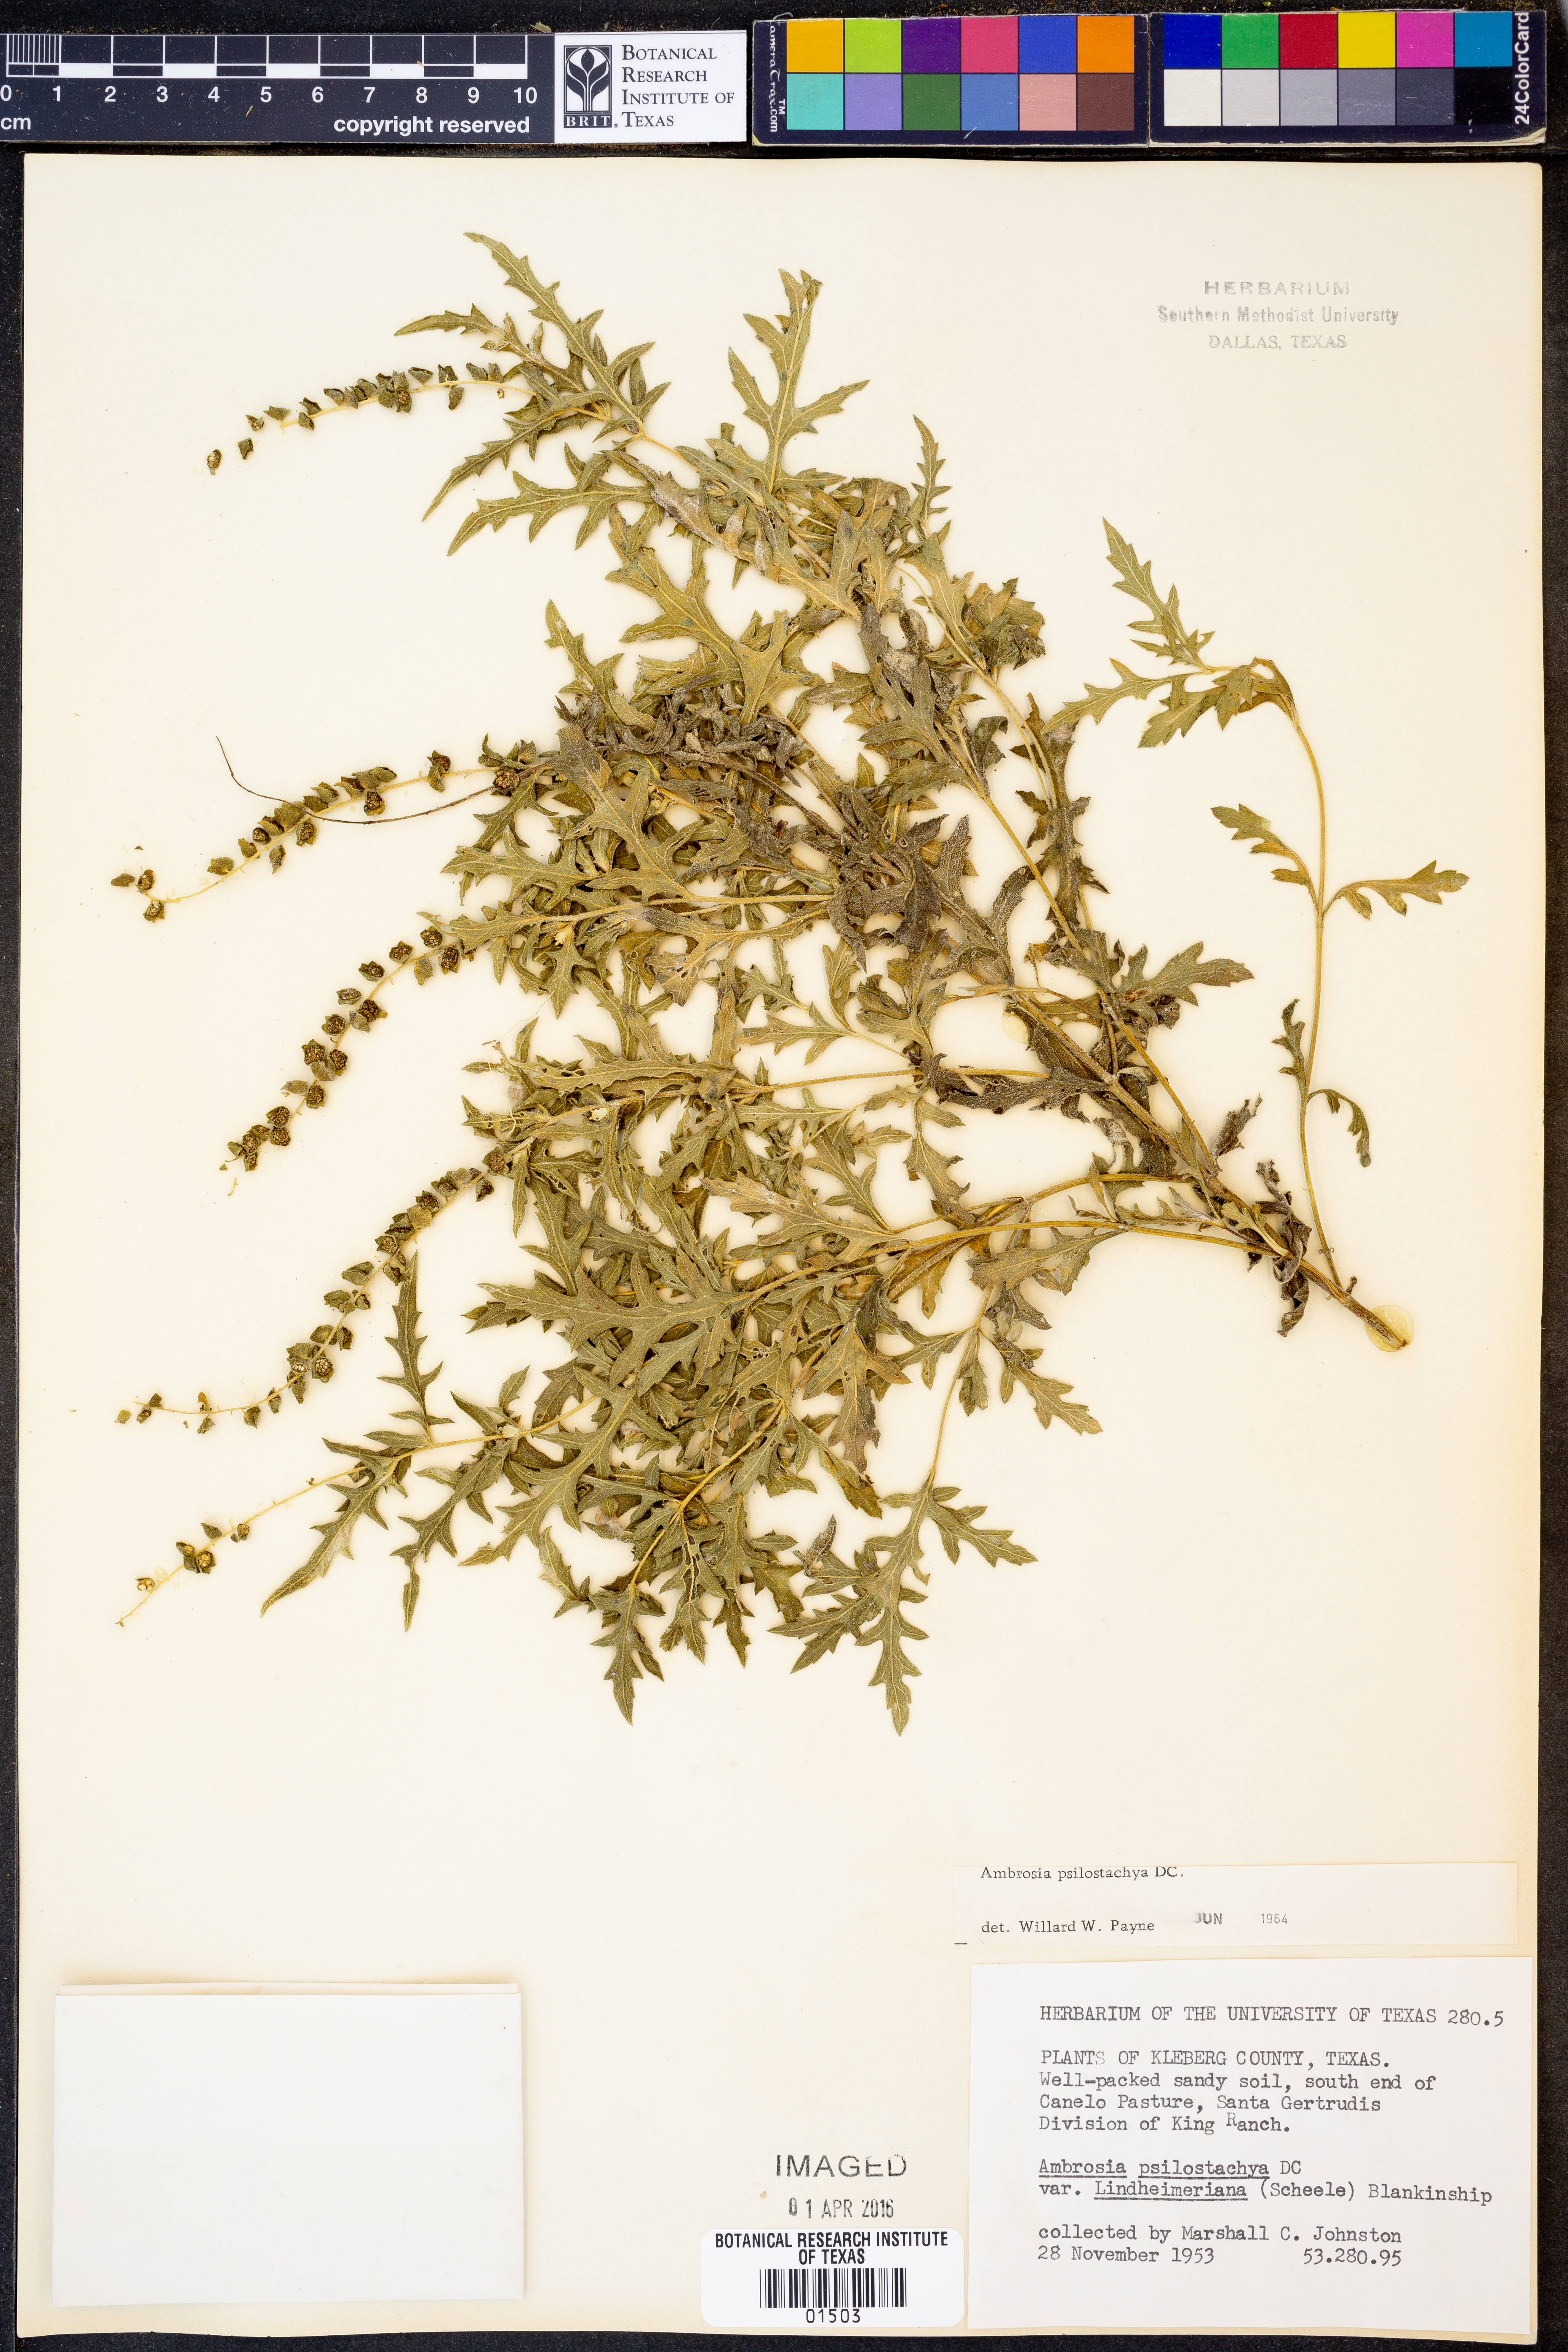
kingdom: Plantae
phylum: Tracheophyta
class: Magnoliopsida
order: Asterales
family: Asteraceae
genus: Ambrosia
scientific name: Ambrosia psilostachya
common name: Perennial ragweed
